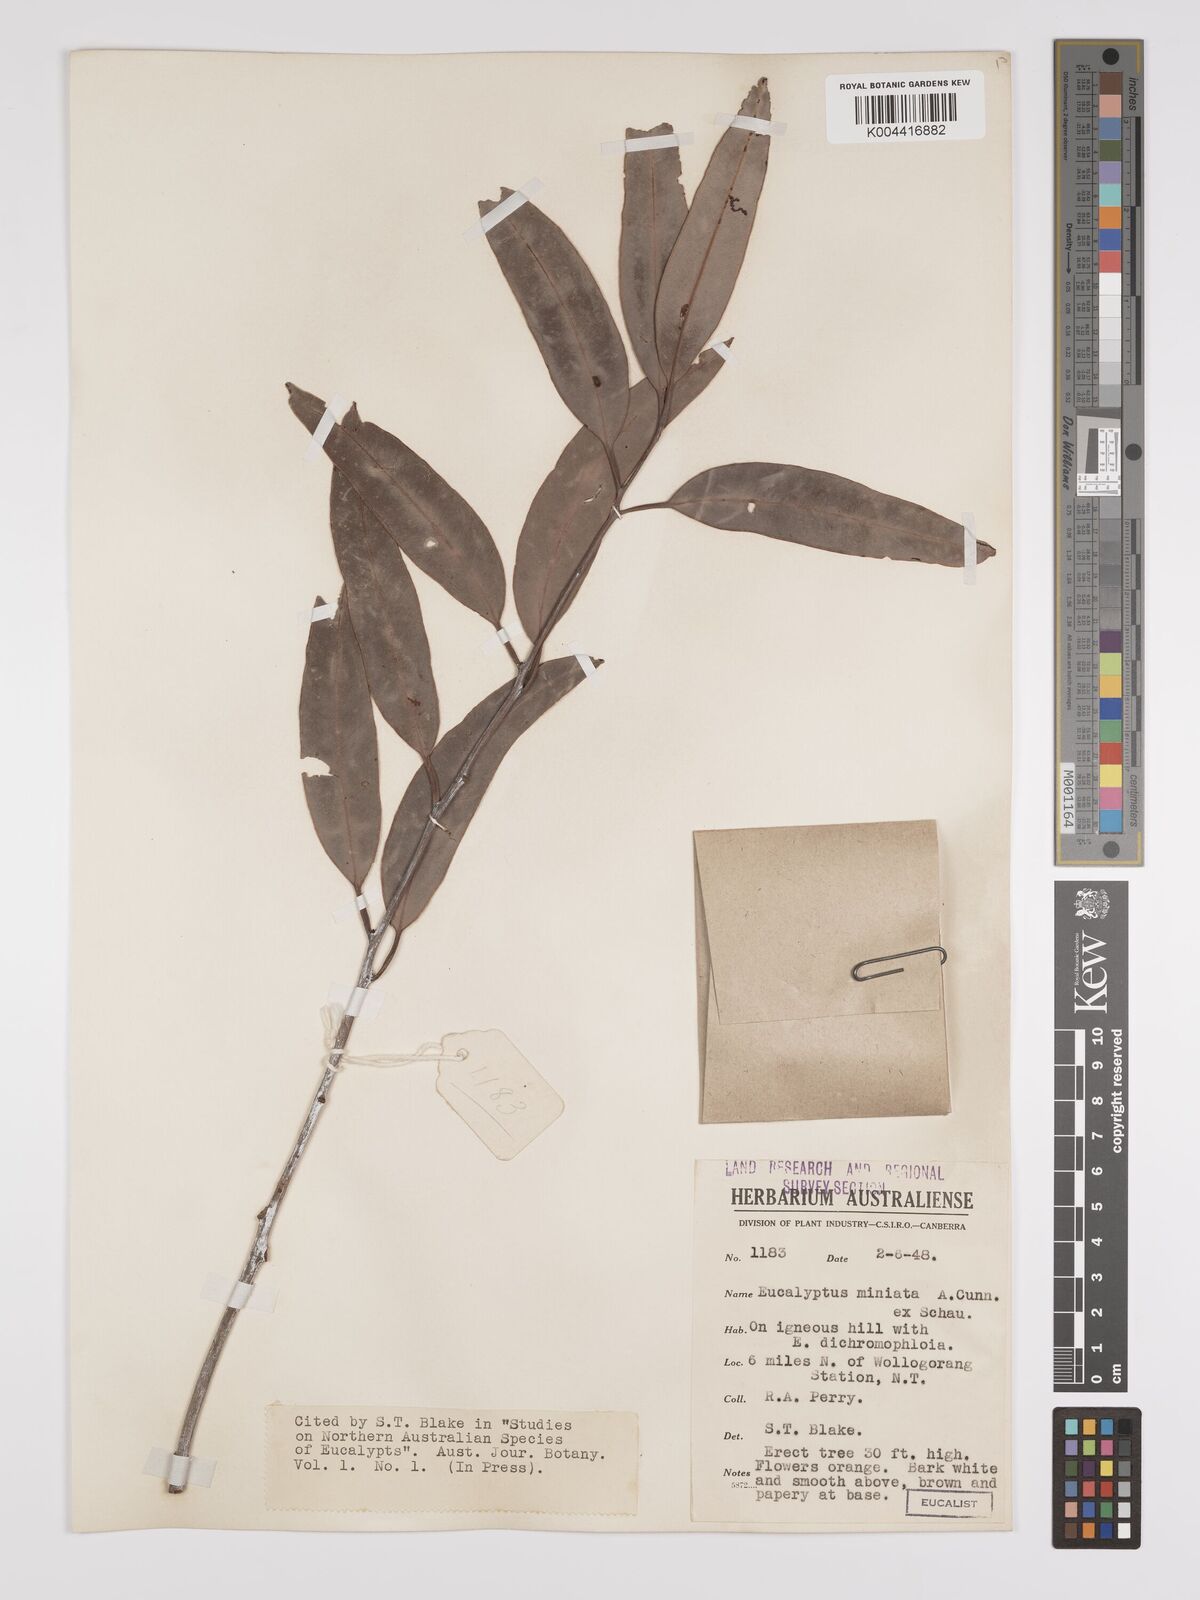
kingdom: Plantae
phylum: Tracheophyta
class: Magnoliopsida
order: Myrtales
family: Myrtaceae
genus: Eucalyptus
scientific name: Eucalyptus miniata
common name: Darwin-woollybutt
